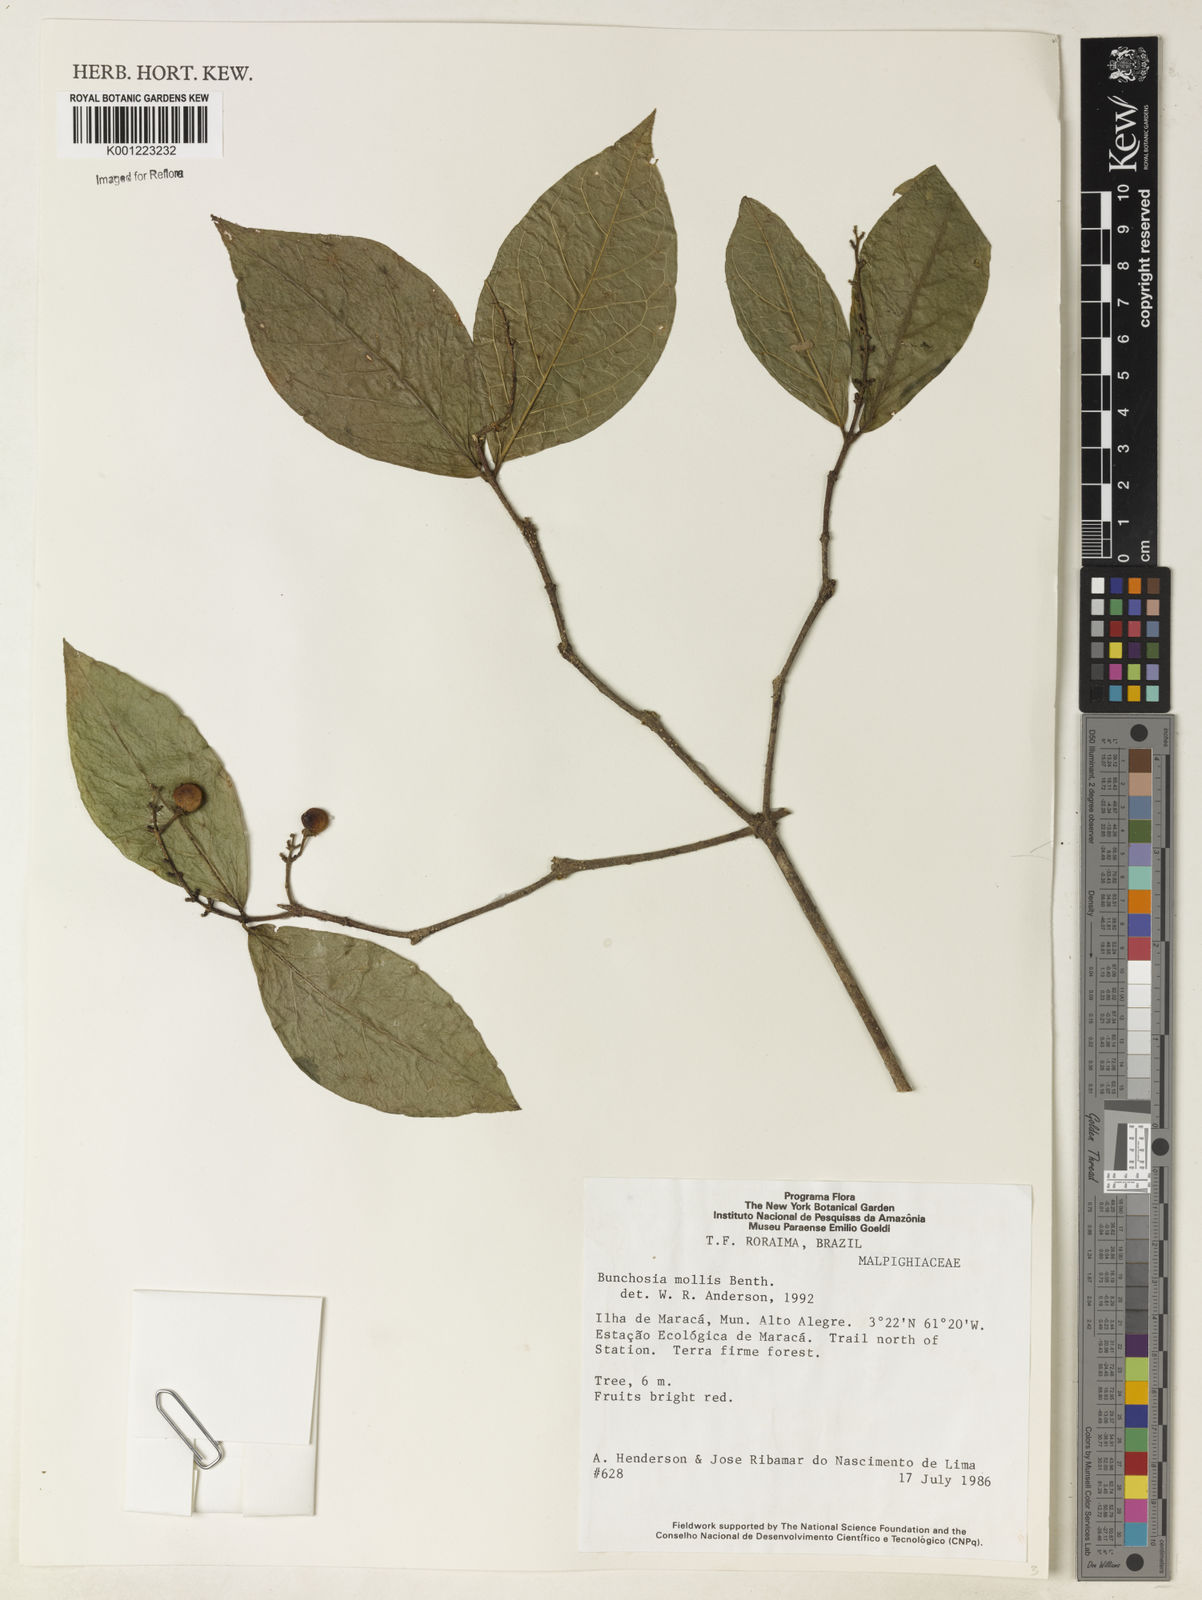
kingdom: Plantae
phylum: Tracheophyta
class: Magnoliopsida
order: Malpighiales
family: Malpighiaceae
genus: Bunchosia
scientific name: Bunchosia mollis
